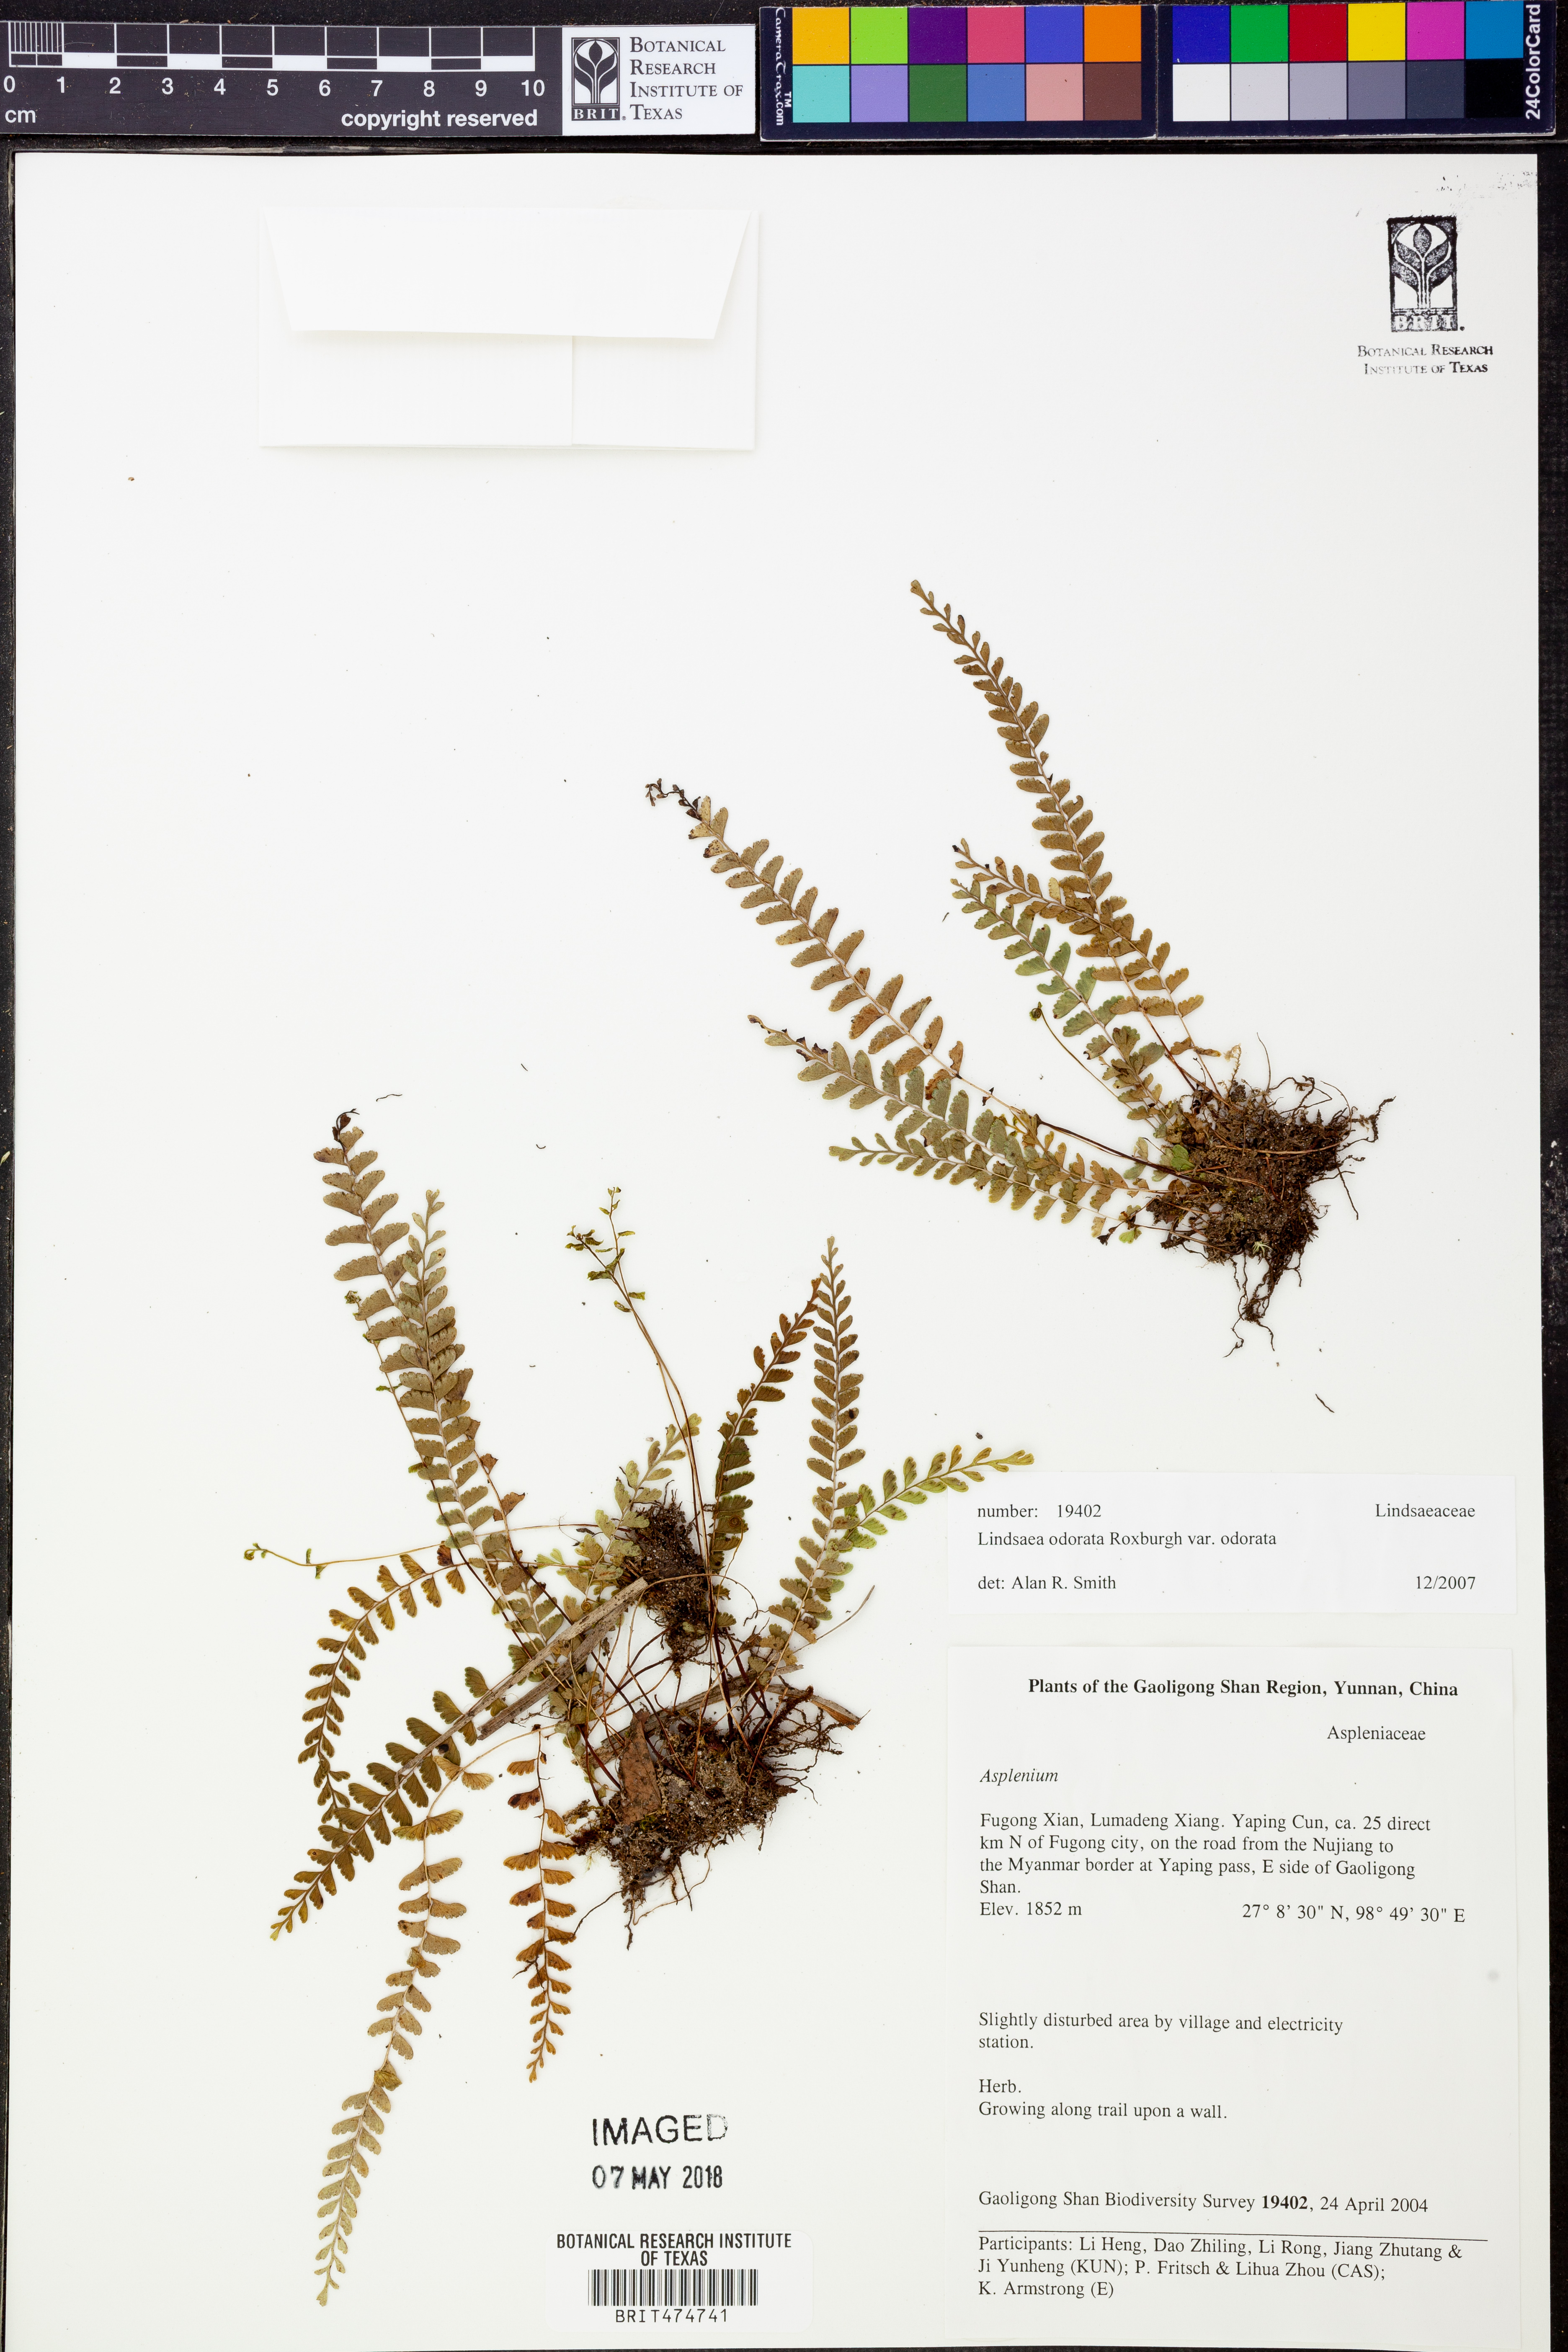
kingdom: Plantae
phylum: Tracheophyta
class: Polypodiopsida
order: Polypodiales
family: Lindsaeaceae
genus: Osmolindsaea
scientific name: Osmolindsaea odorata
